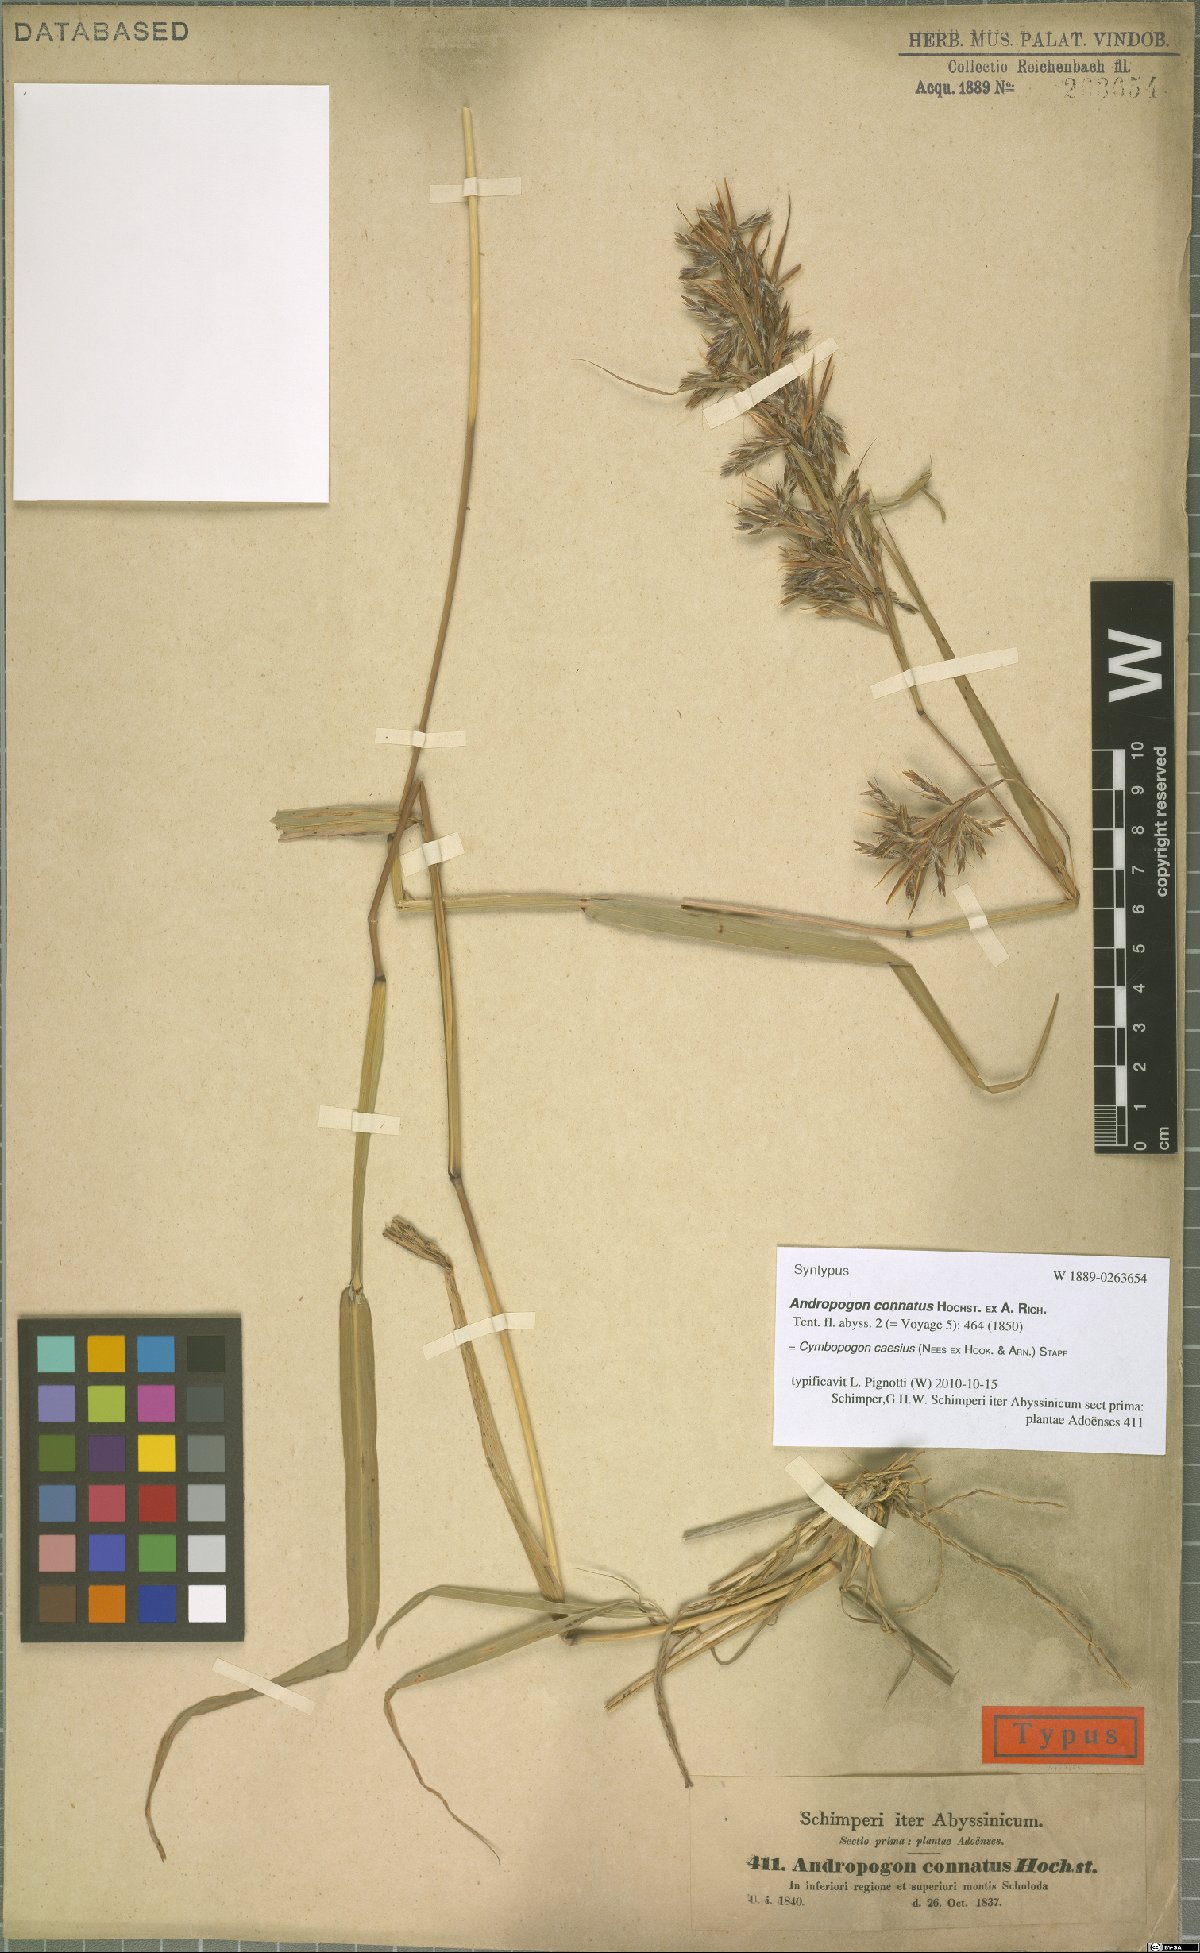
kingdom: Plantae
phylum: Tracheophyta
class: Liliopsida
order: Poales
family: Poaceae
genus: Cymbopogon
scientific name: Cymbopogon caesius
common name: Kachi grass
